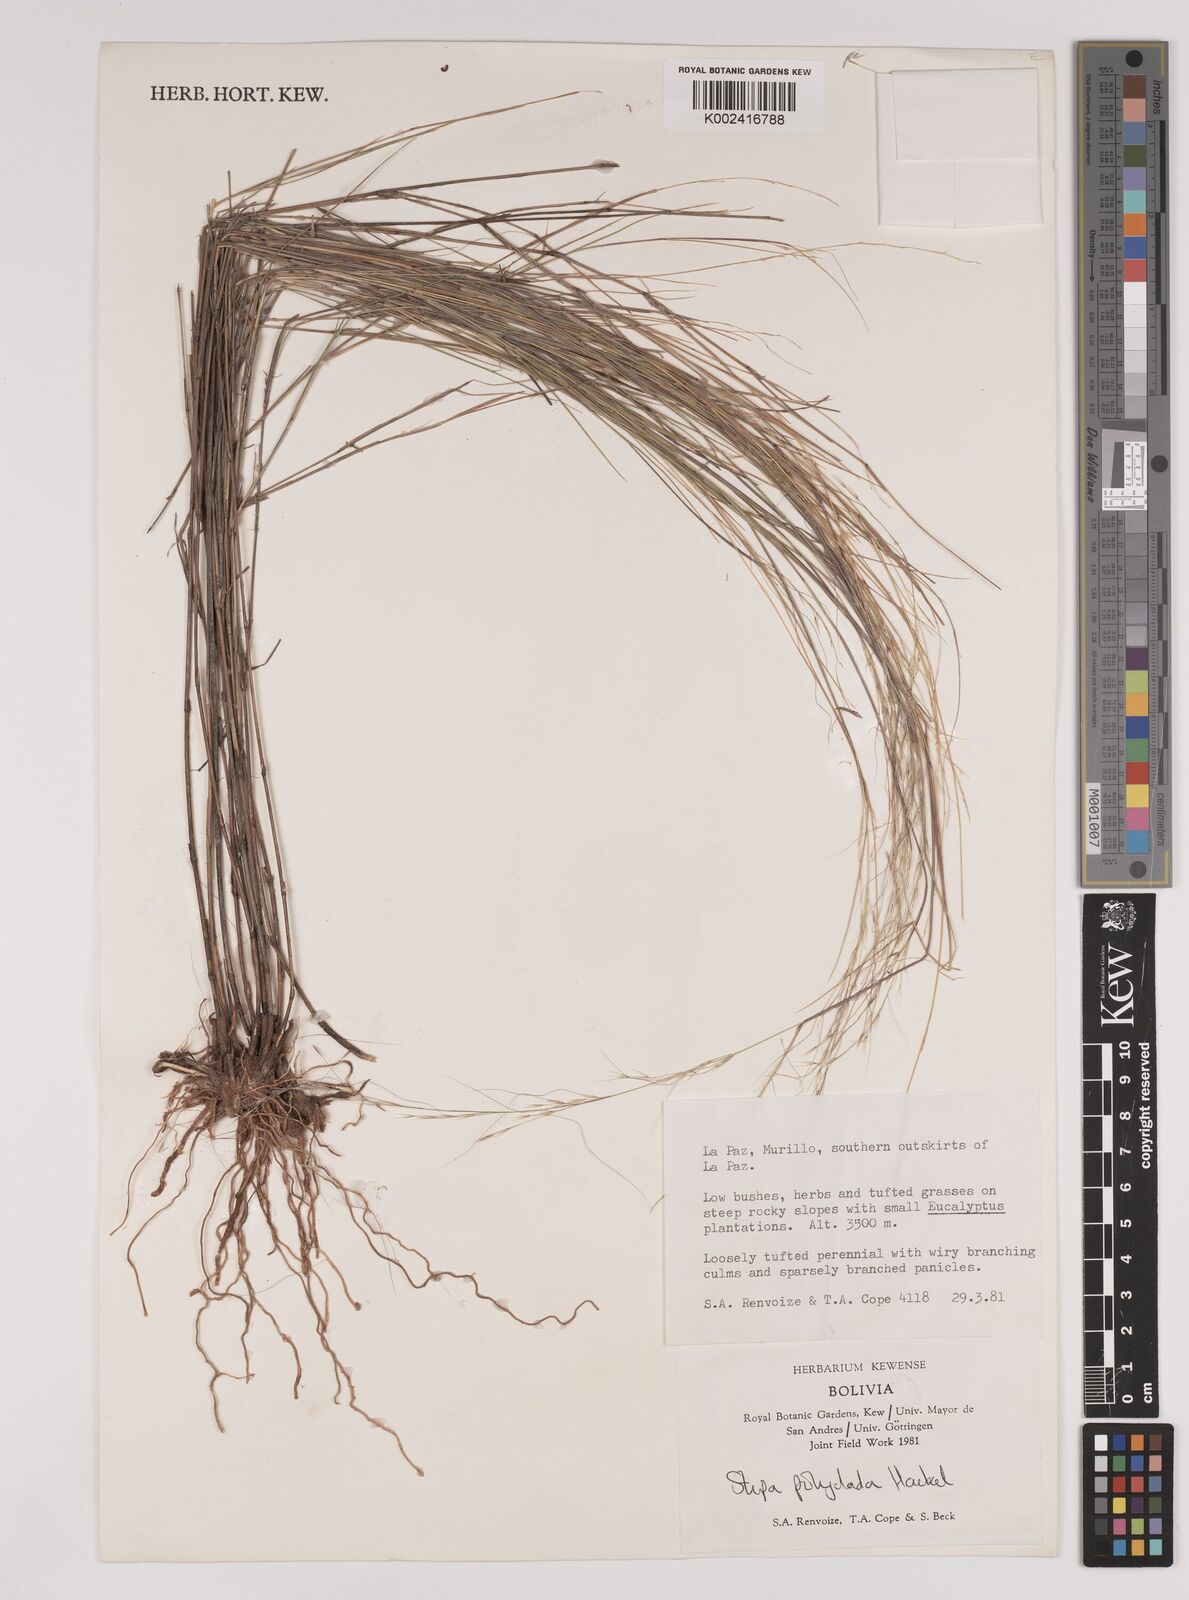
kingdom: Plantae
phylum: Tracheophyta
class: Liliopsida
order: Poales
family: Poaceae
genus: Stipa
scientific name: Stipa illimanica
